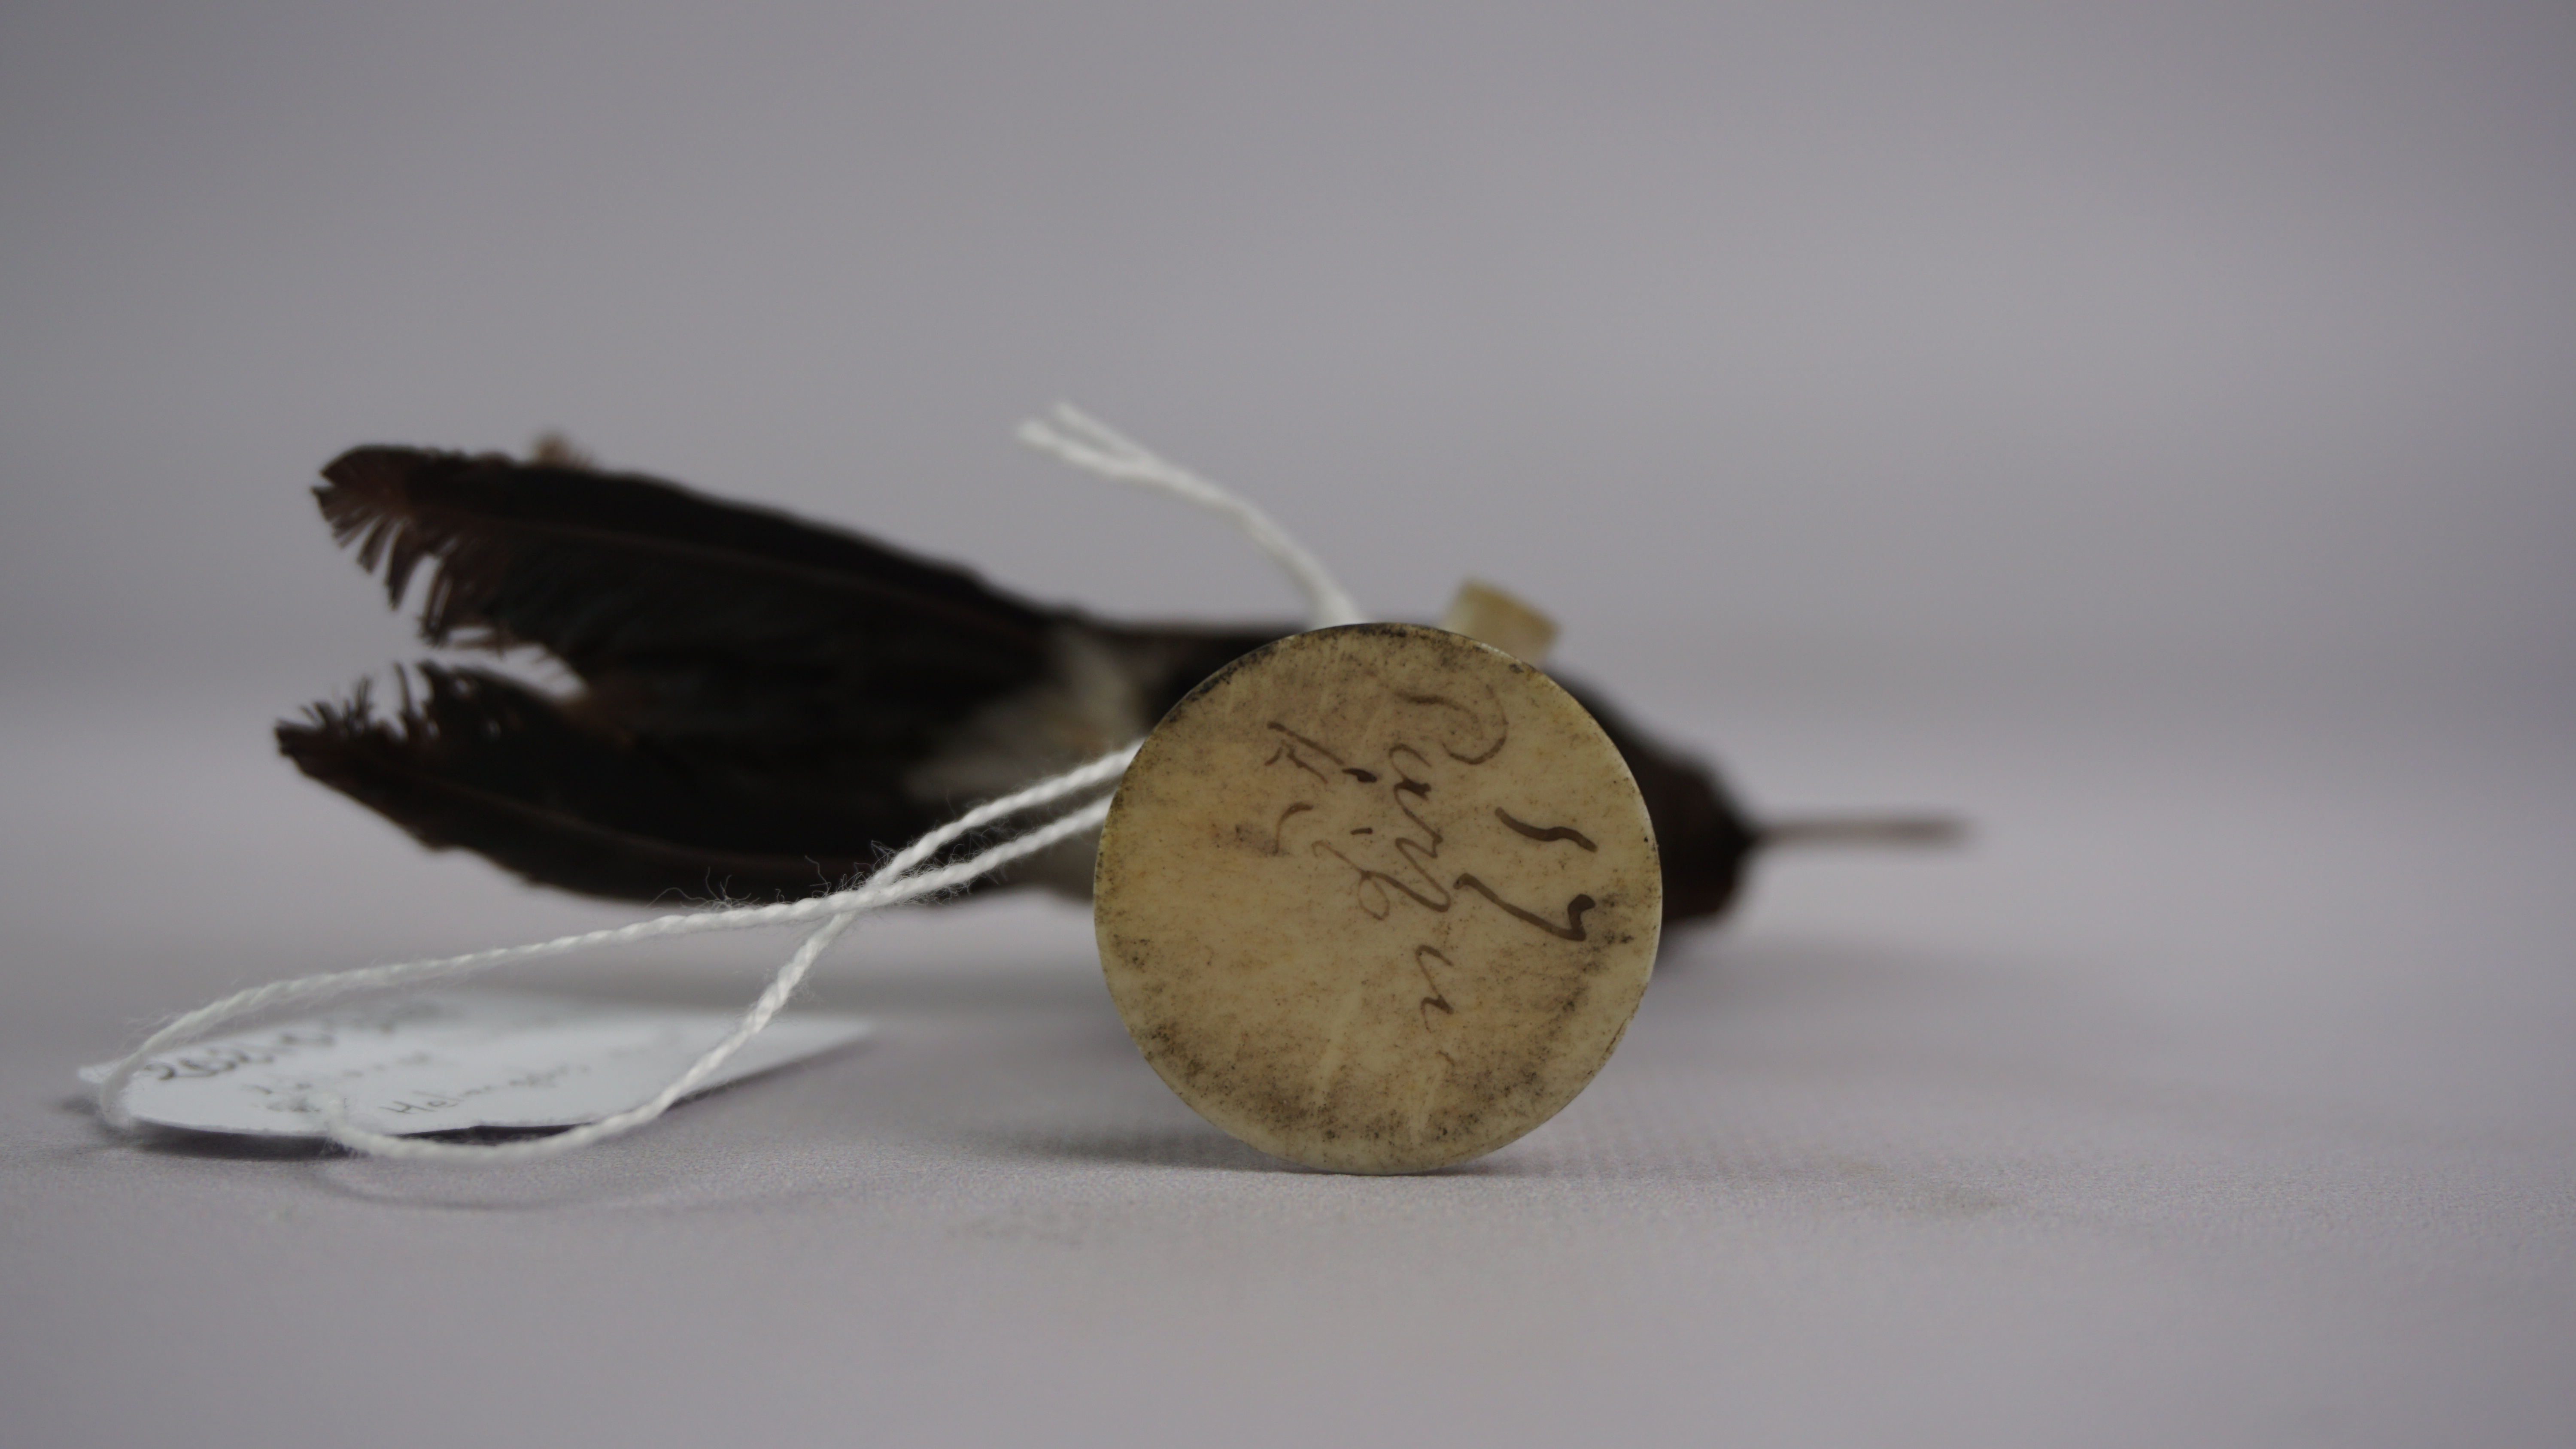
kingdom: Animalia
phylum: Chordata
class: Aves
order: Apodiformes
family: Trochilidae
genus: Heliangelus
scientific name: Heliangelus exortis
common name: Tourmaline sunangel
